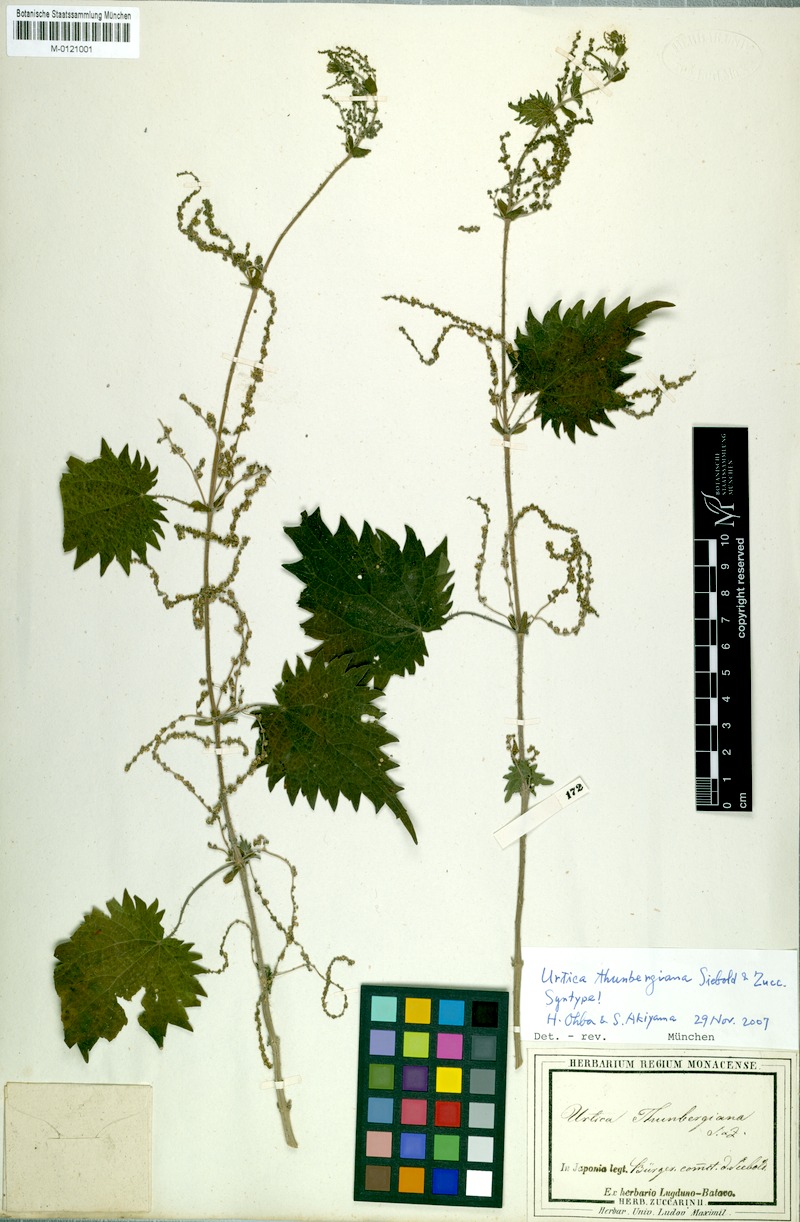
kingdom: Plantae
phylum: Tracheophyta
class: Magnoliopsida
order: Rosales
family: Urticaceae
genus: Urtica
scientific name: Urtica thunbergiana
